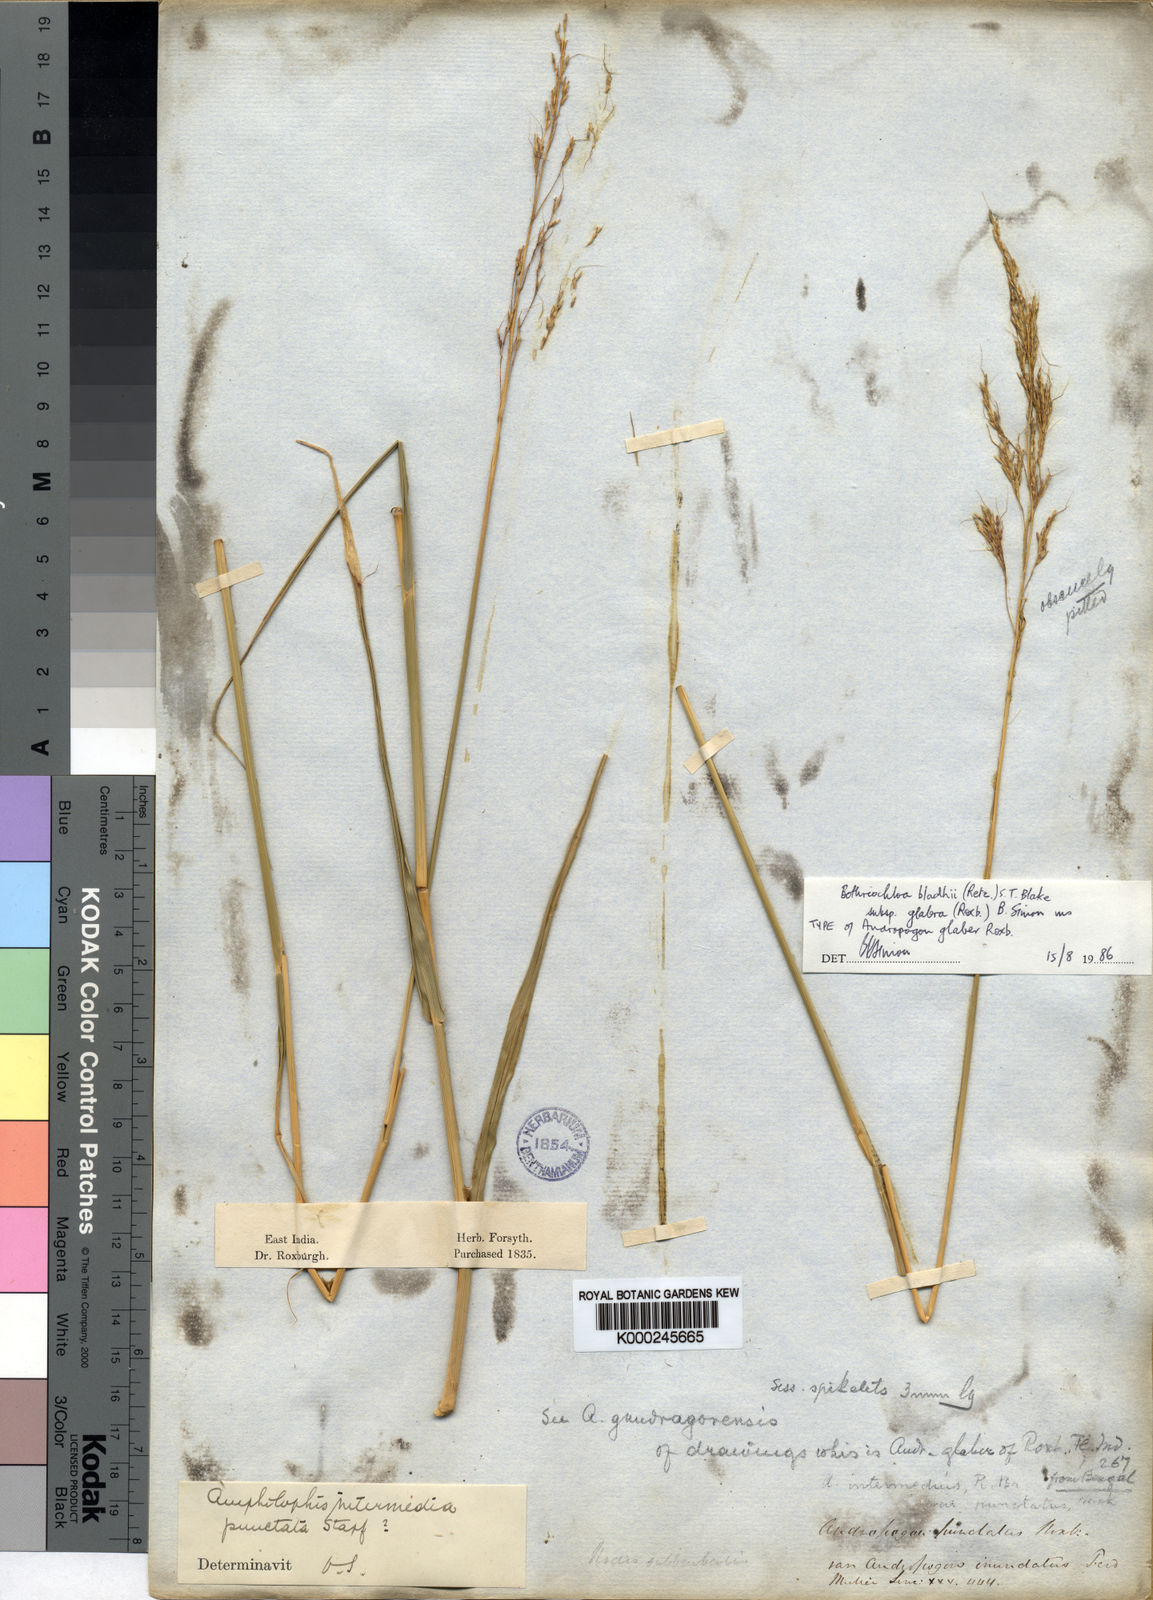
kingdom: Plantae
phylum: Tracheophyta
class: Liliopsida
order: Poales
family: Poaceae
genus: Bothriochloa
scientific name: Bothriochloa bladhii
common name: Caucasian bluestem
